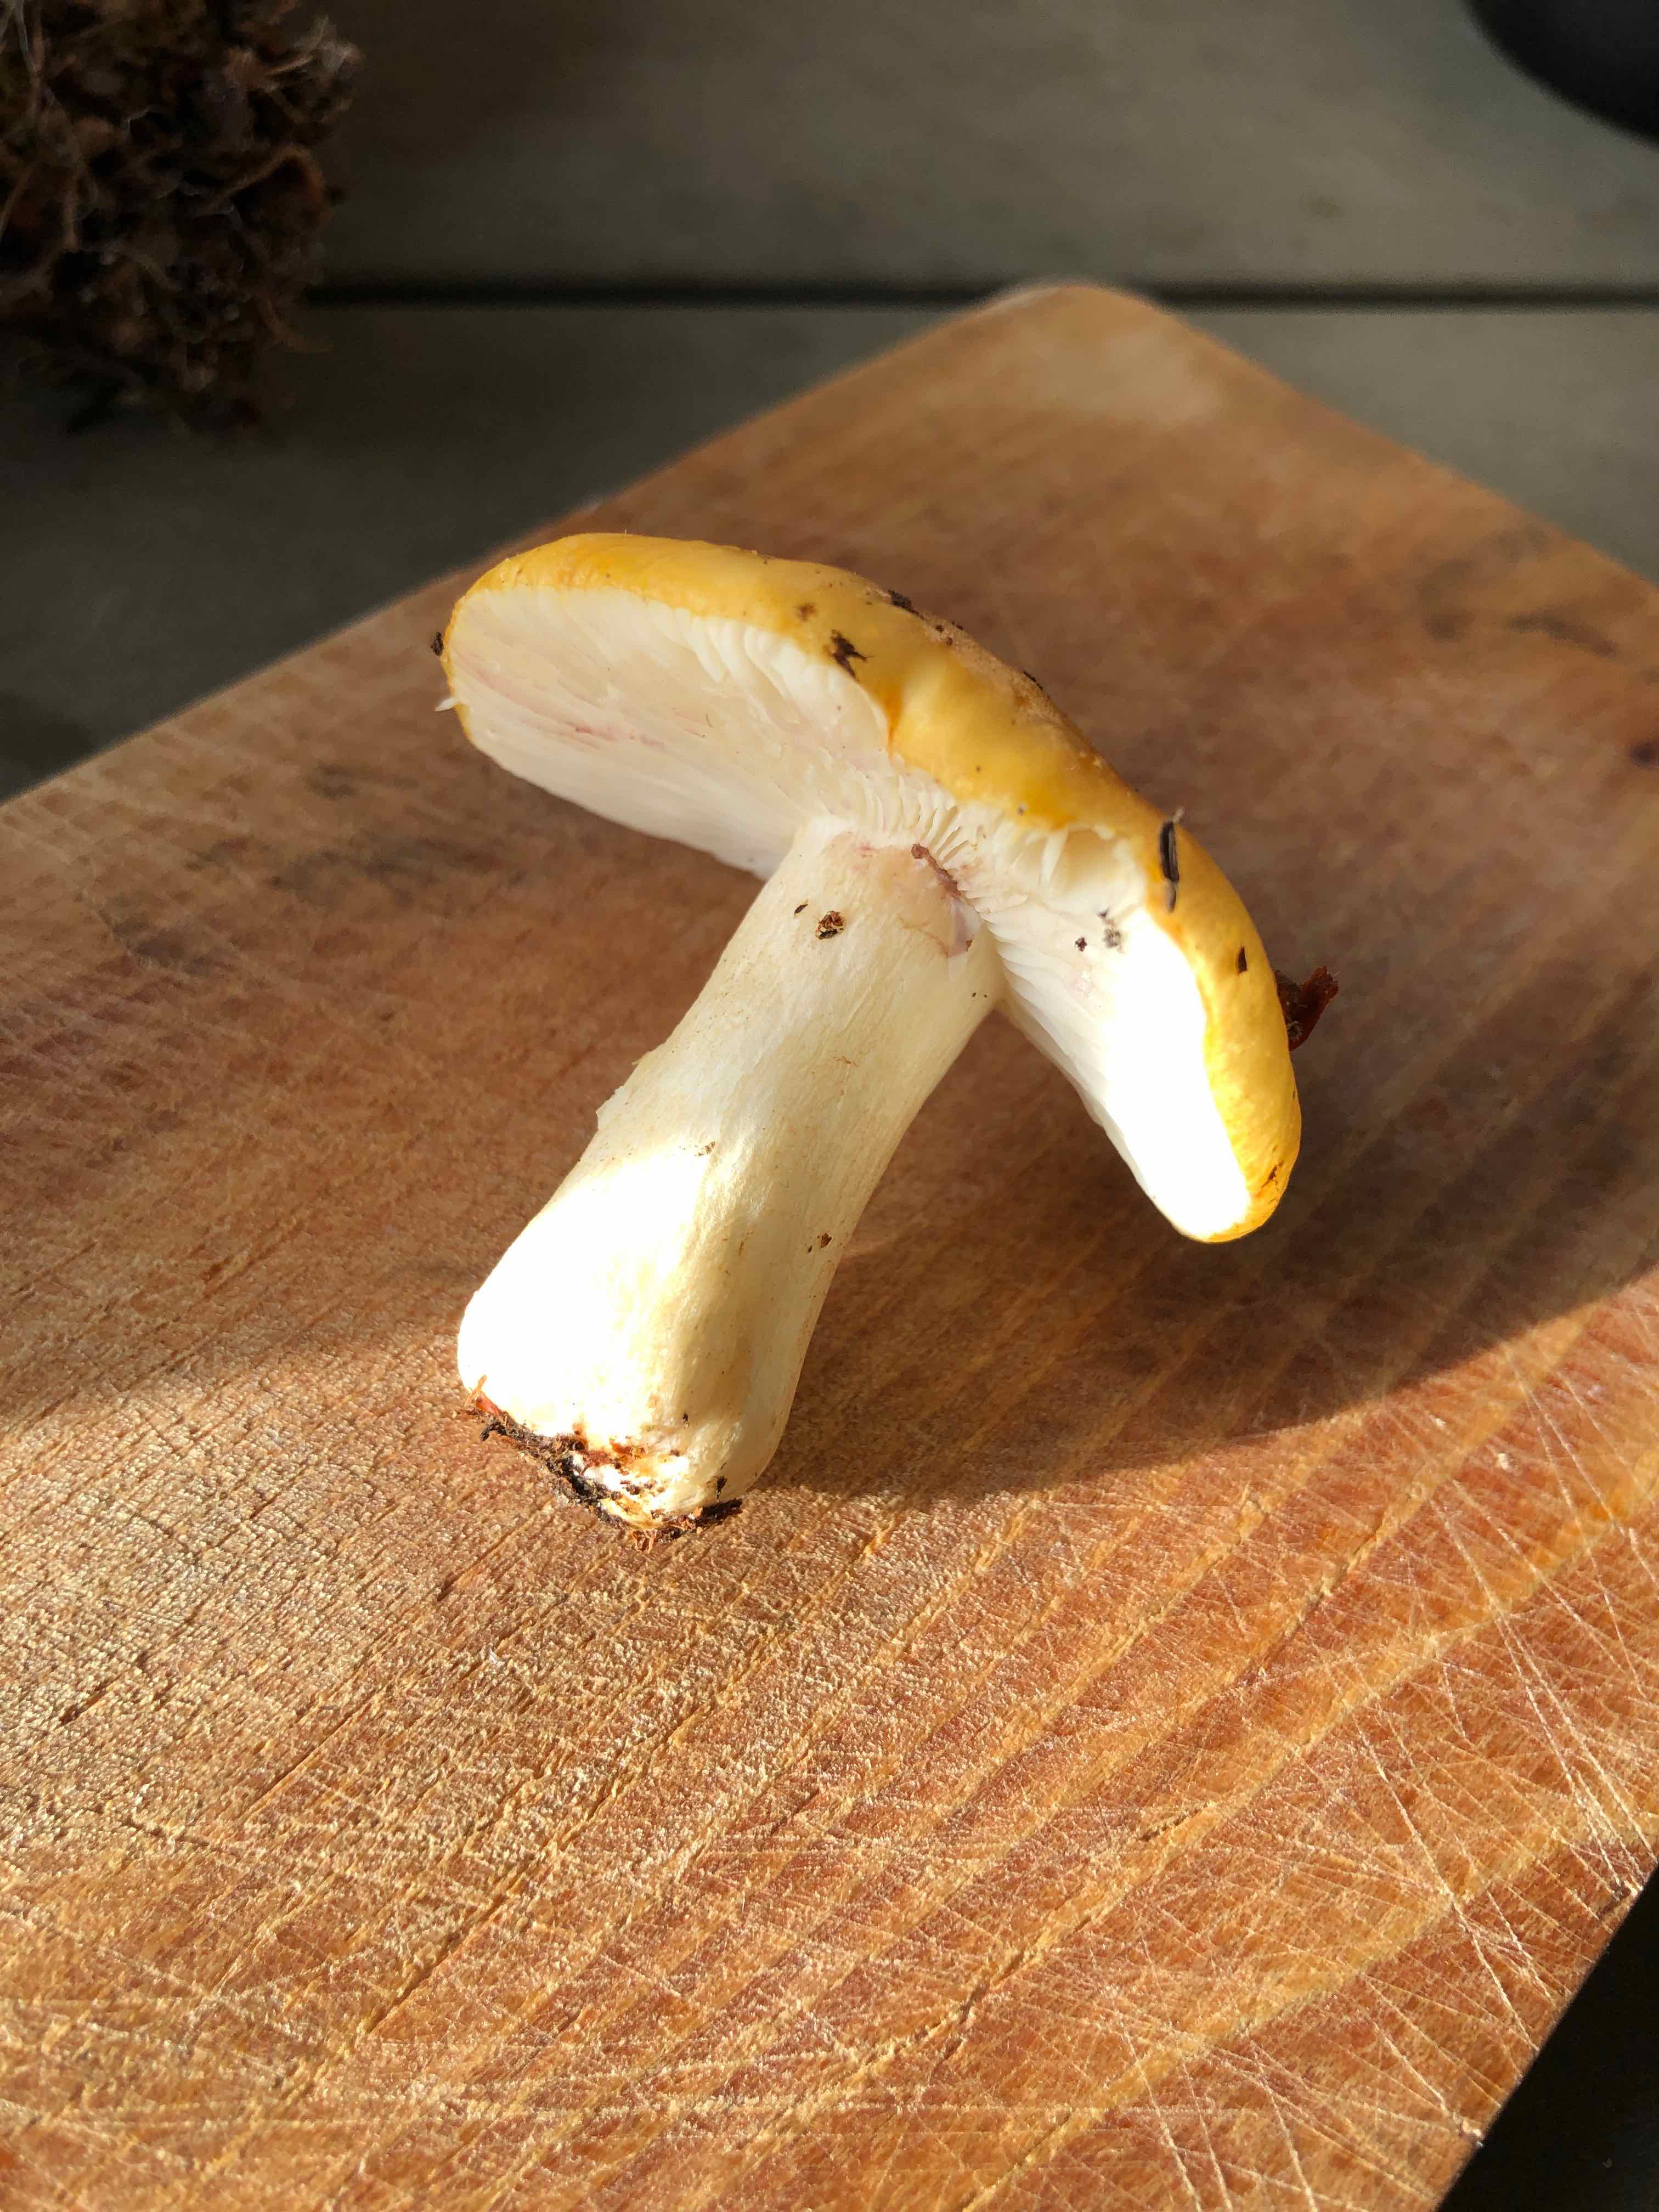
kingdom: Fungi
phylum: Basidiomycota
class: Agaricomycetes
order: Russulales
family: Russulaceae
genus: Russula
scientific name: Russula ochroleuca
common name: okkergul skørhat
